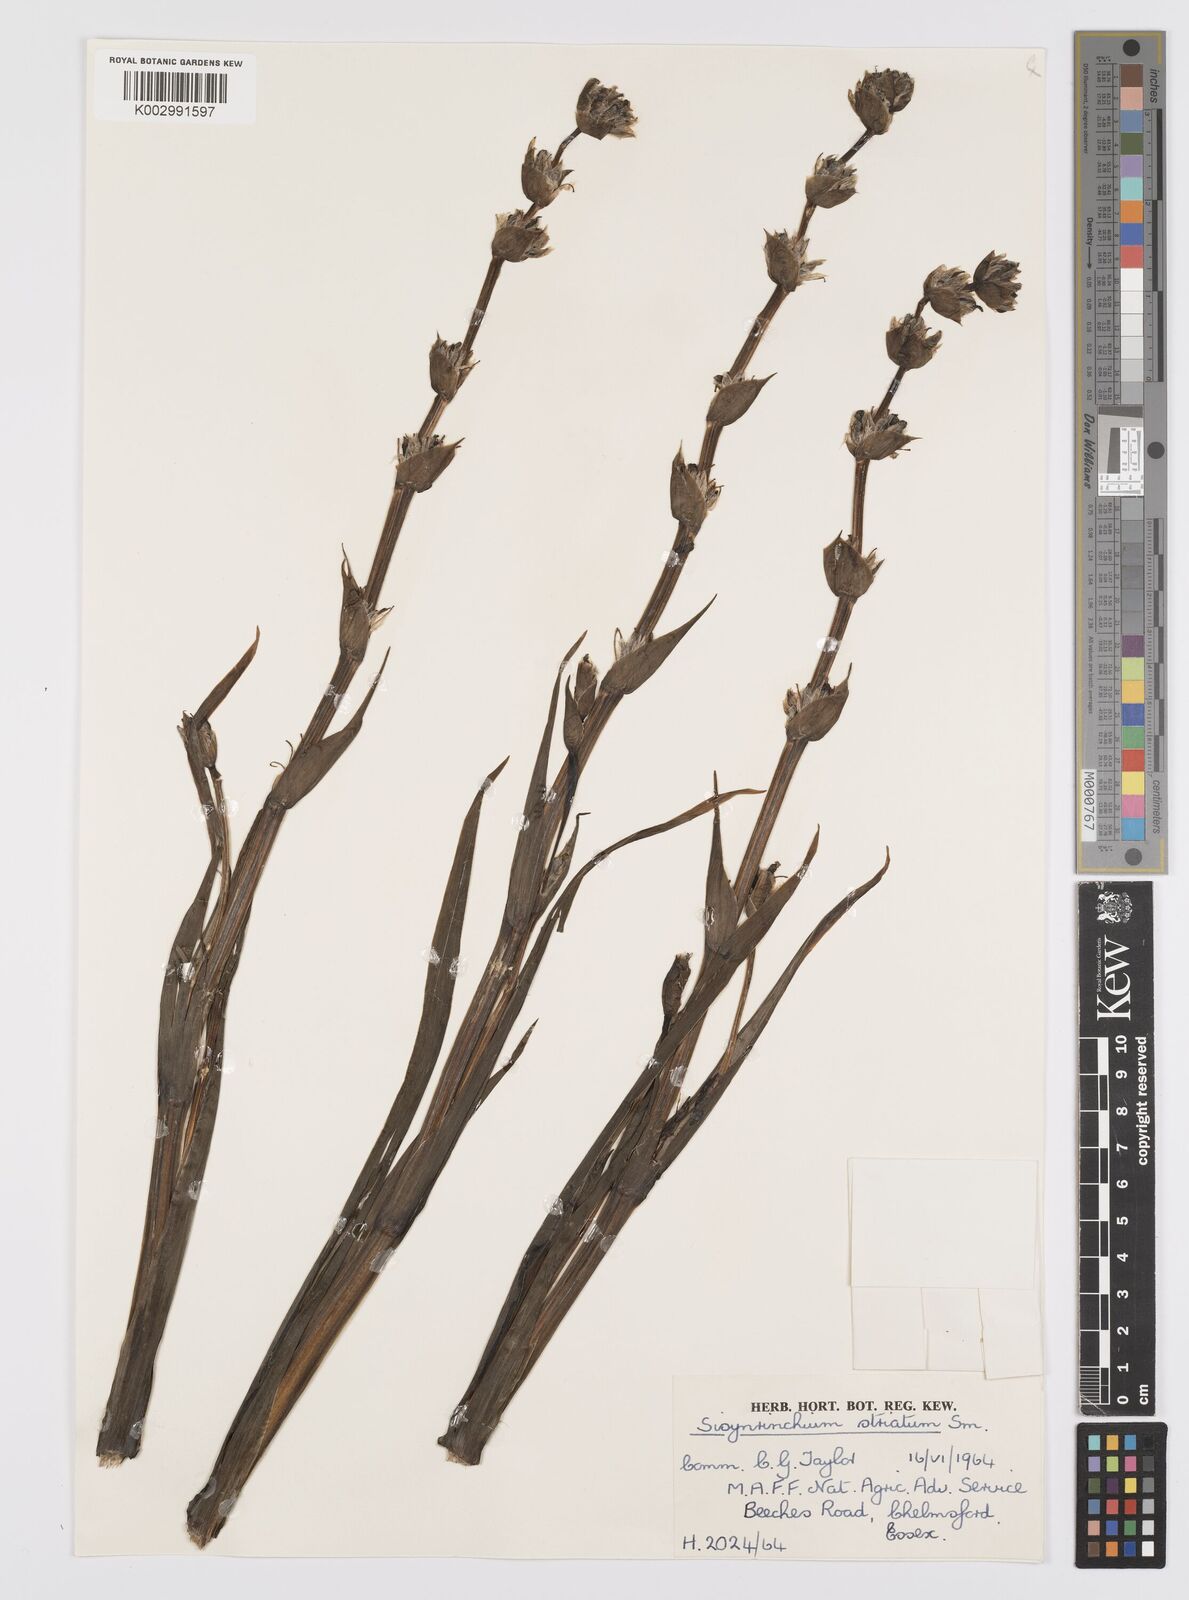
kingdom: Plantae
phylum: Tracheophyta
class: Liliopsida
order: Asparagales
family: Iridaceae
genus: Sisyrinchium
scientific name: Sisyrinchium striatum
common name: Pale yellow-eyed-grass
